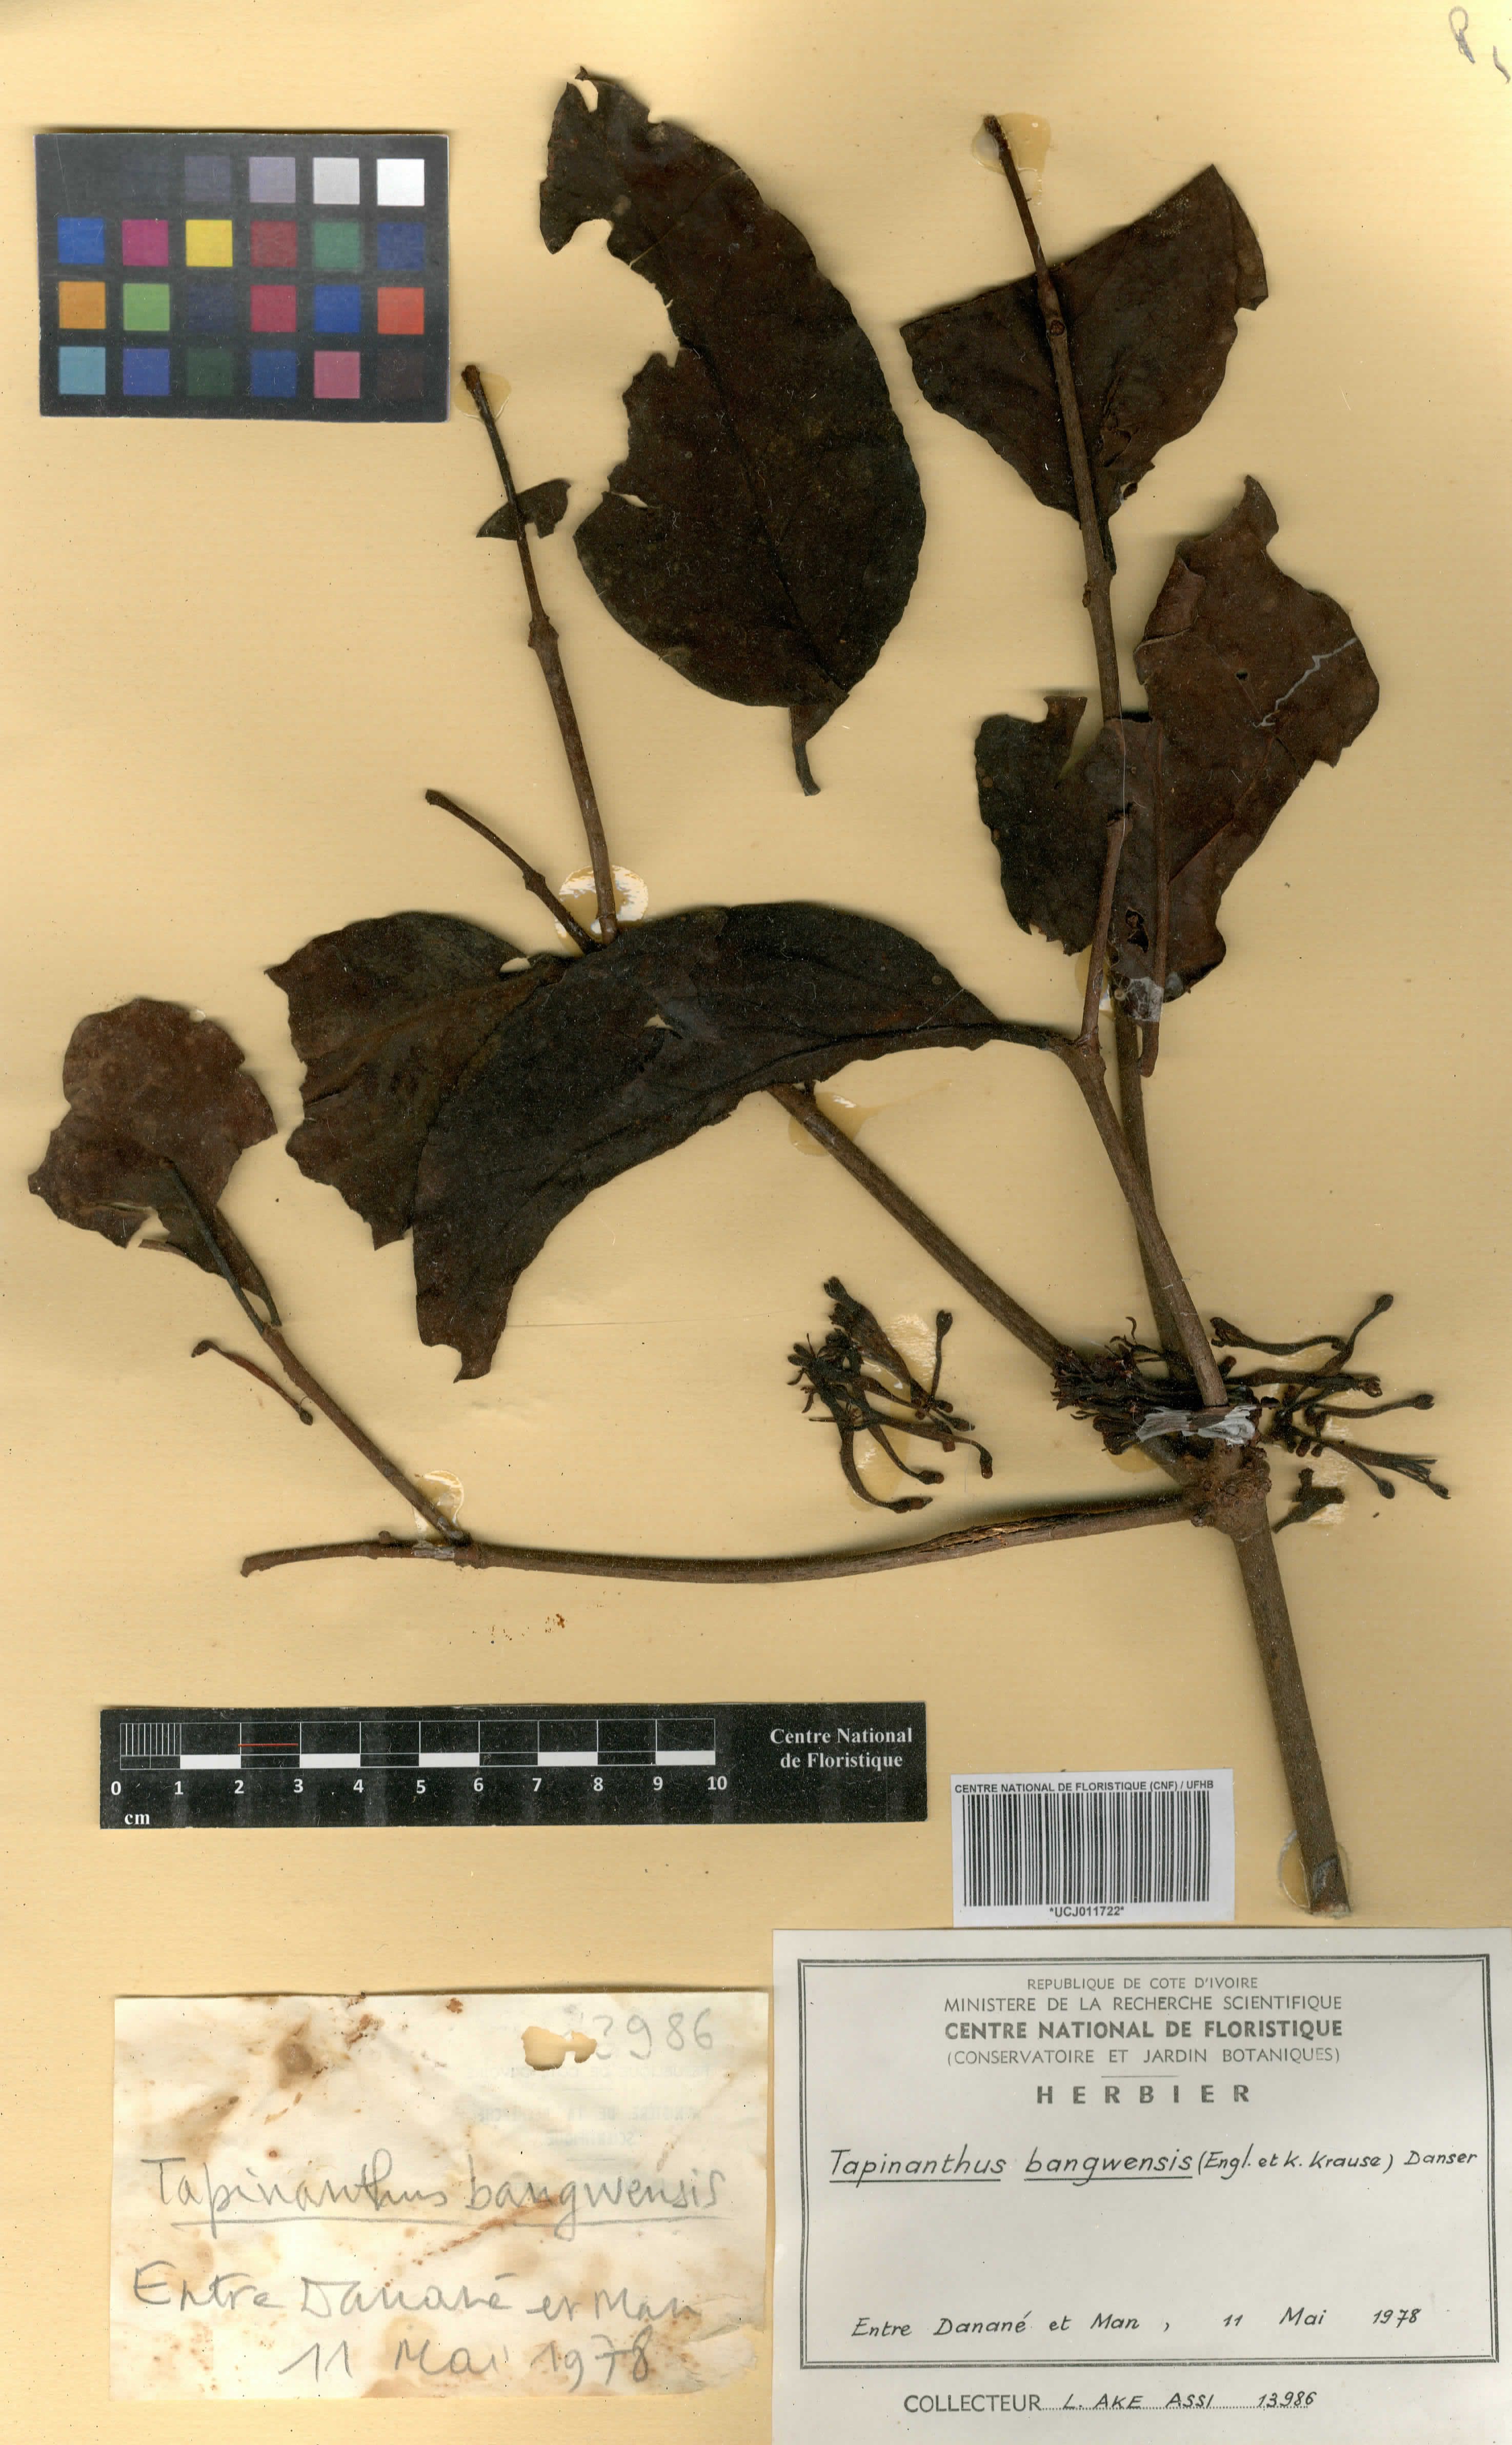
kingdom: Plantae
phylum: Tracheophyta
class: Magnoliopsida
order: Santalales
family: Loranthaceae
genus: Tapinanthus
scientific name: Tapinanthus bangwensis
